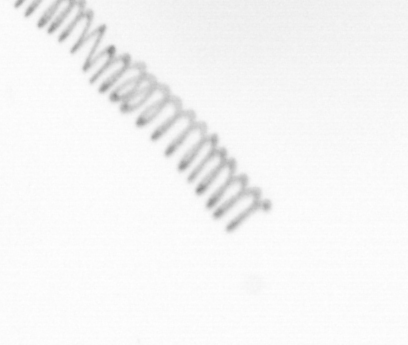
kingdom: Chromista
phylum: Ochrophyta
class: Bacillariophyceae
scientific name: Bacillariophyceae
